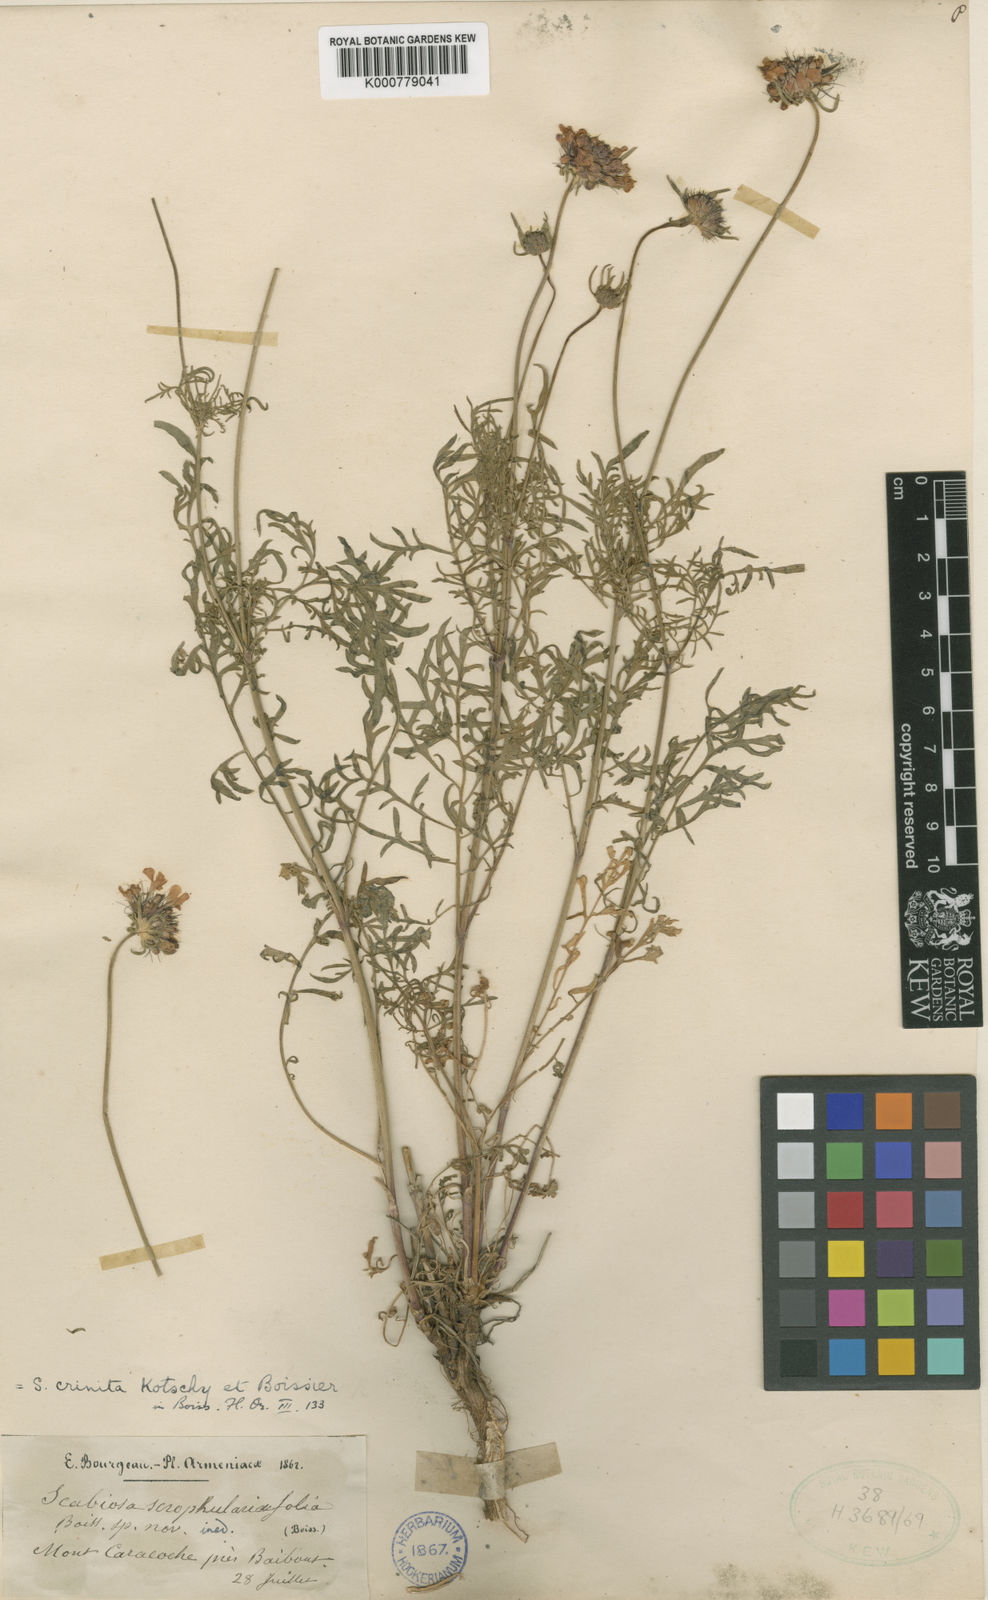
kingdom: Plantae
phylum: Tracheophyta
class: Magnoliopsida
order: Dipsacales
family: Caprifoliaceae
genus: Scabiosa
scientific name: Scabiosa crinita
